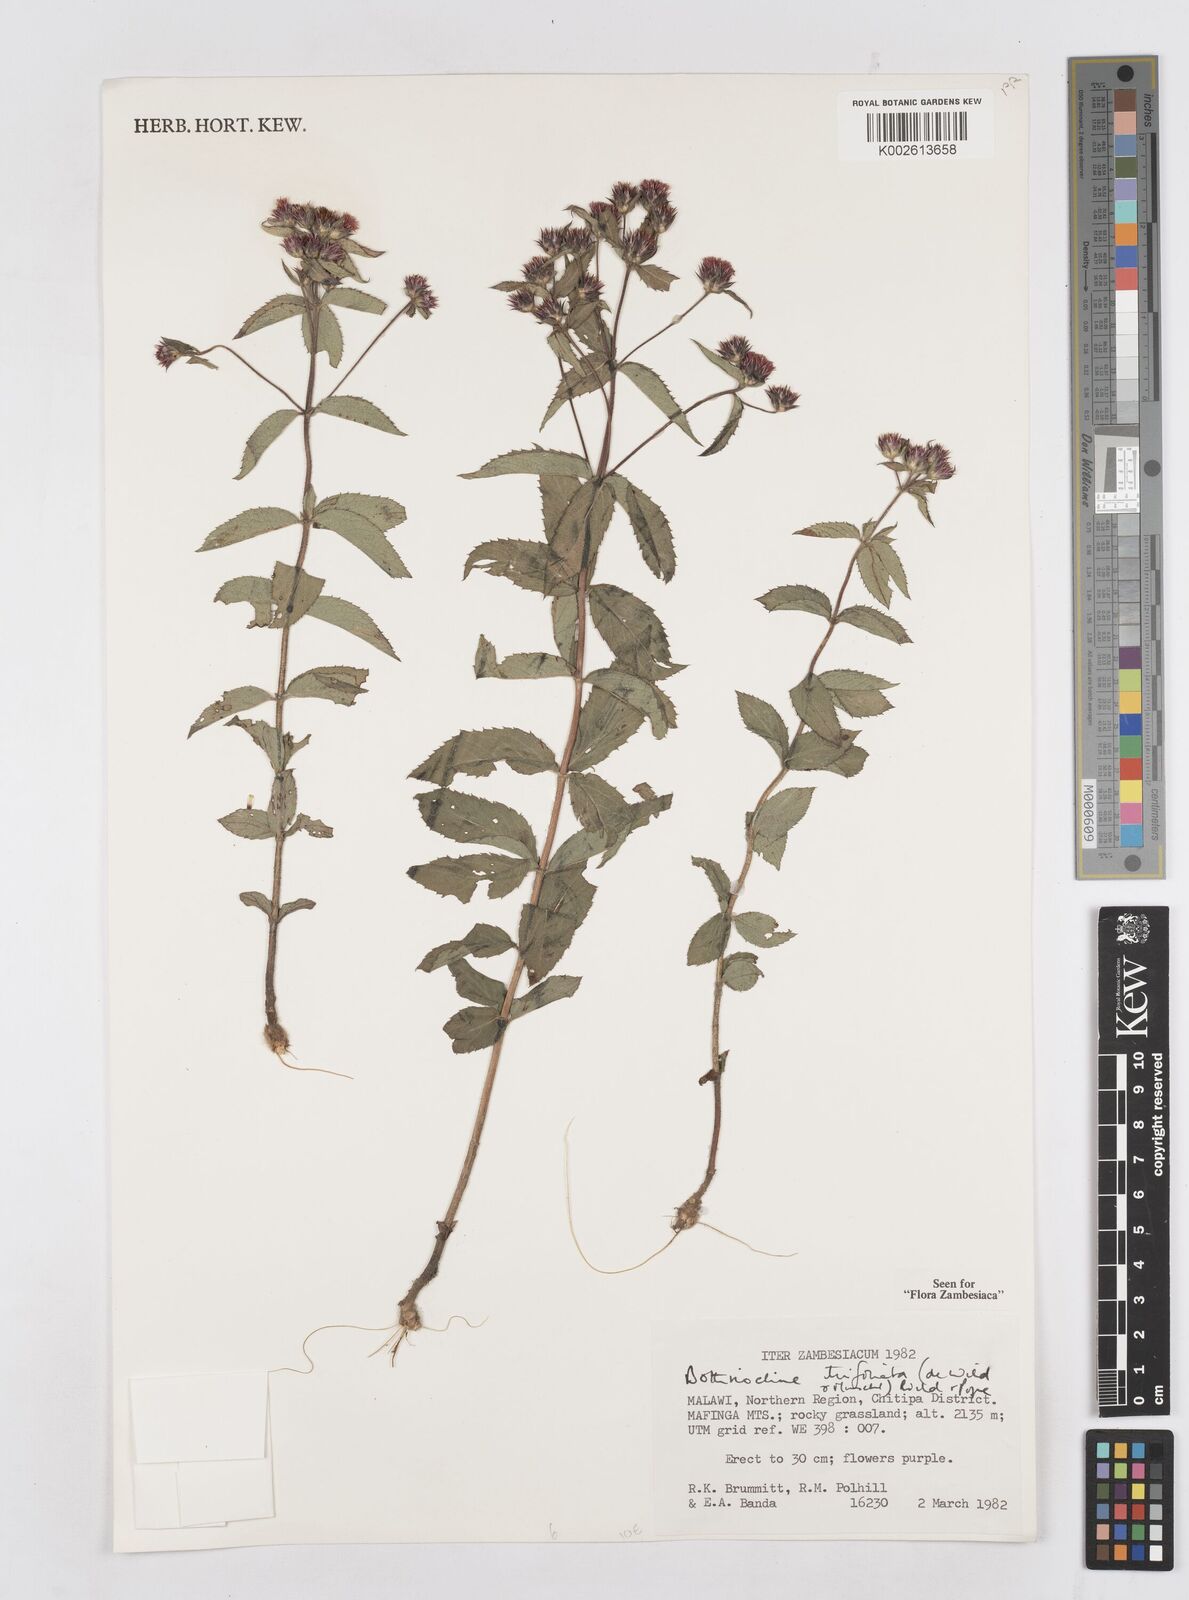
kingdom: Plantae
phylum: Tracheophyta
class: Magnoliopsida
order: Asterales
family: Asteraceae
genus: Bothriocline
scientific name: Bothriocline trifoliata
